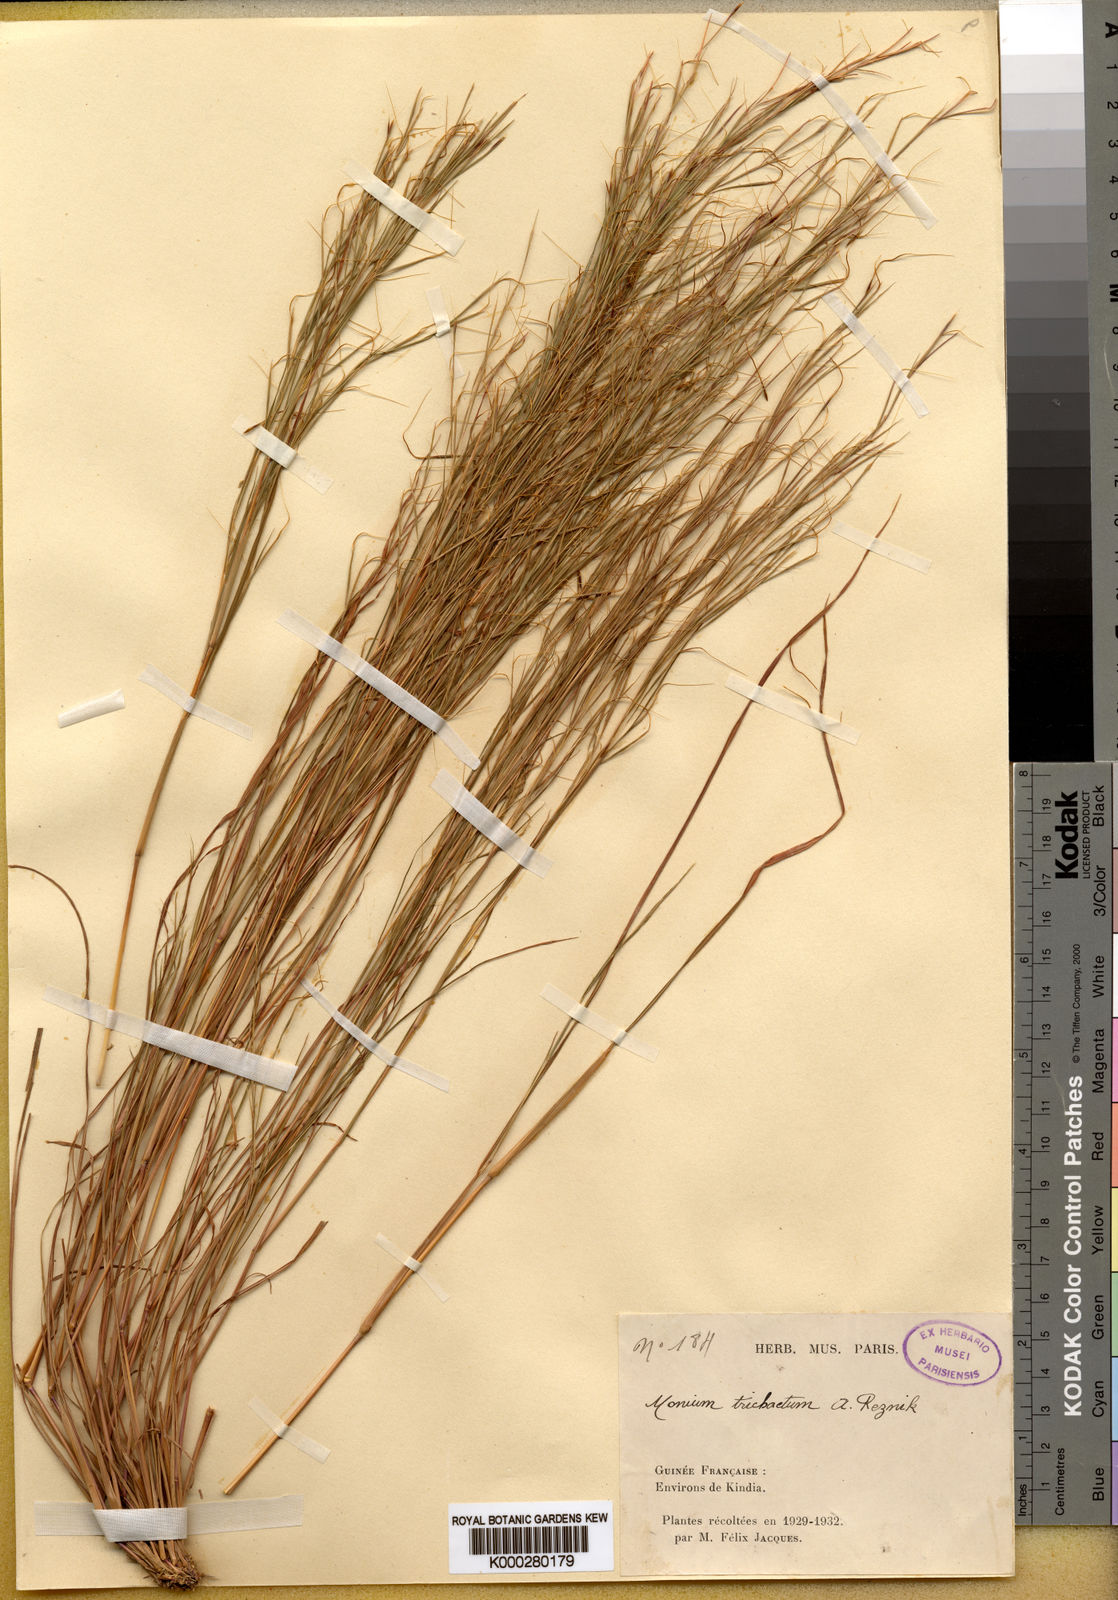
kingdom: Plantae
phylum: Tracheophyta
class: Liliopsida
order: Poales
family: Poaceae
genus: Anadelphia
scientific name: Anadelphia trichaeta
